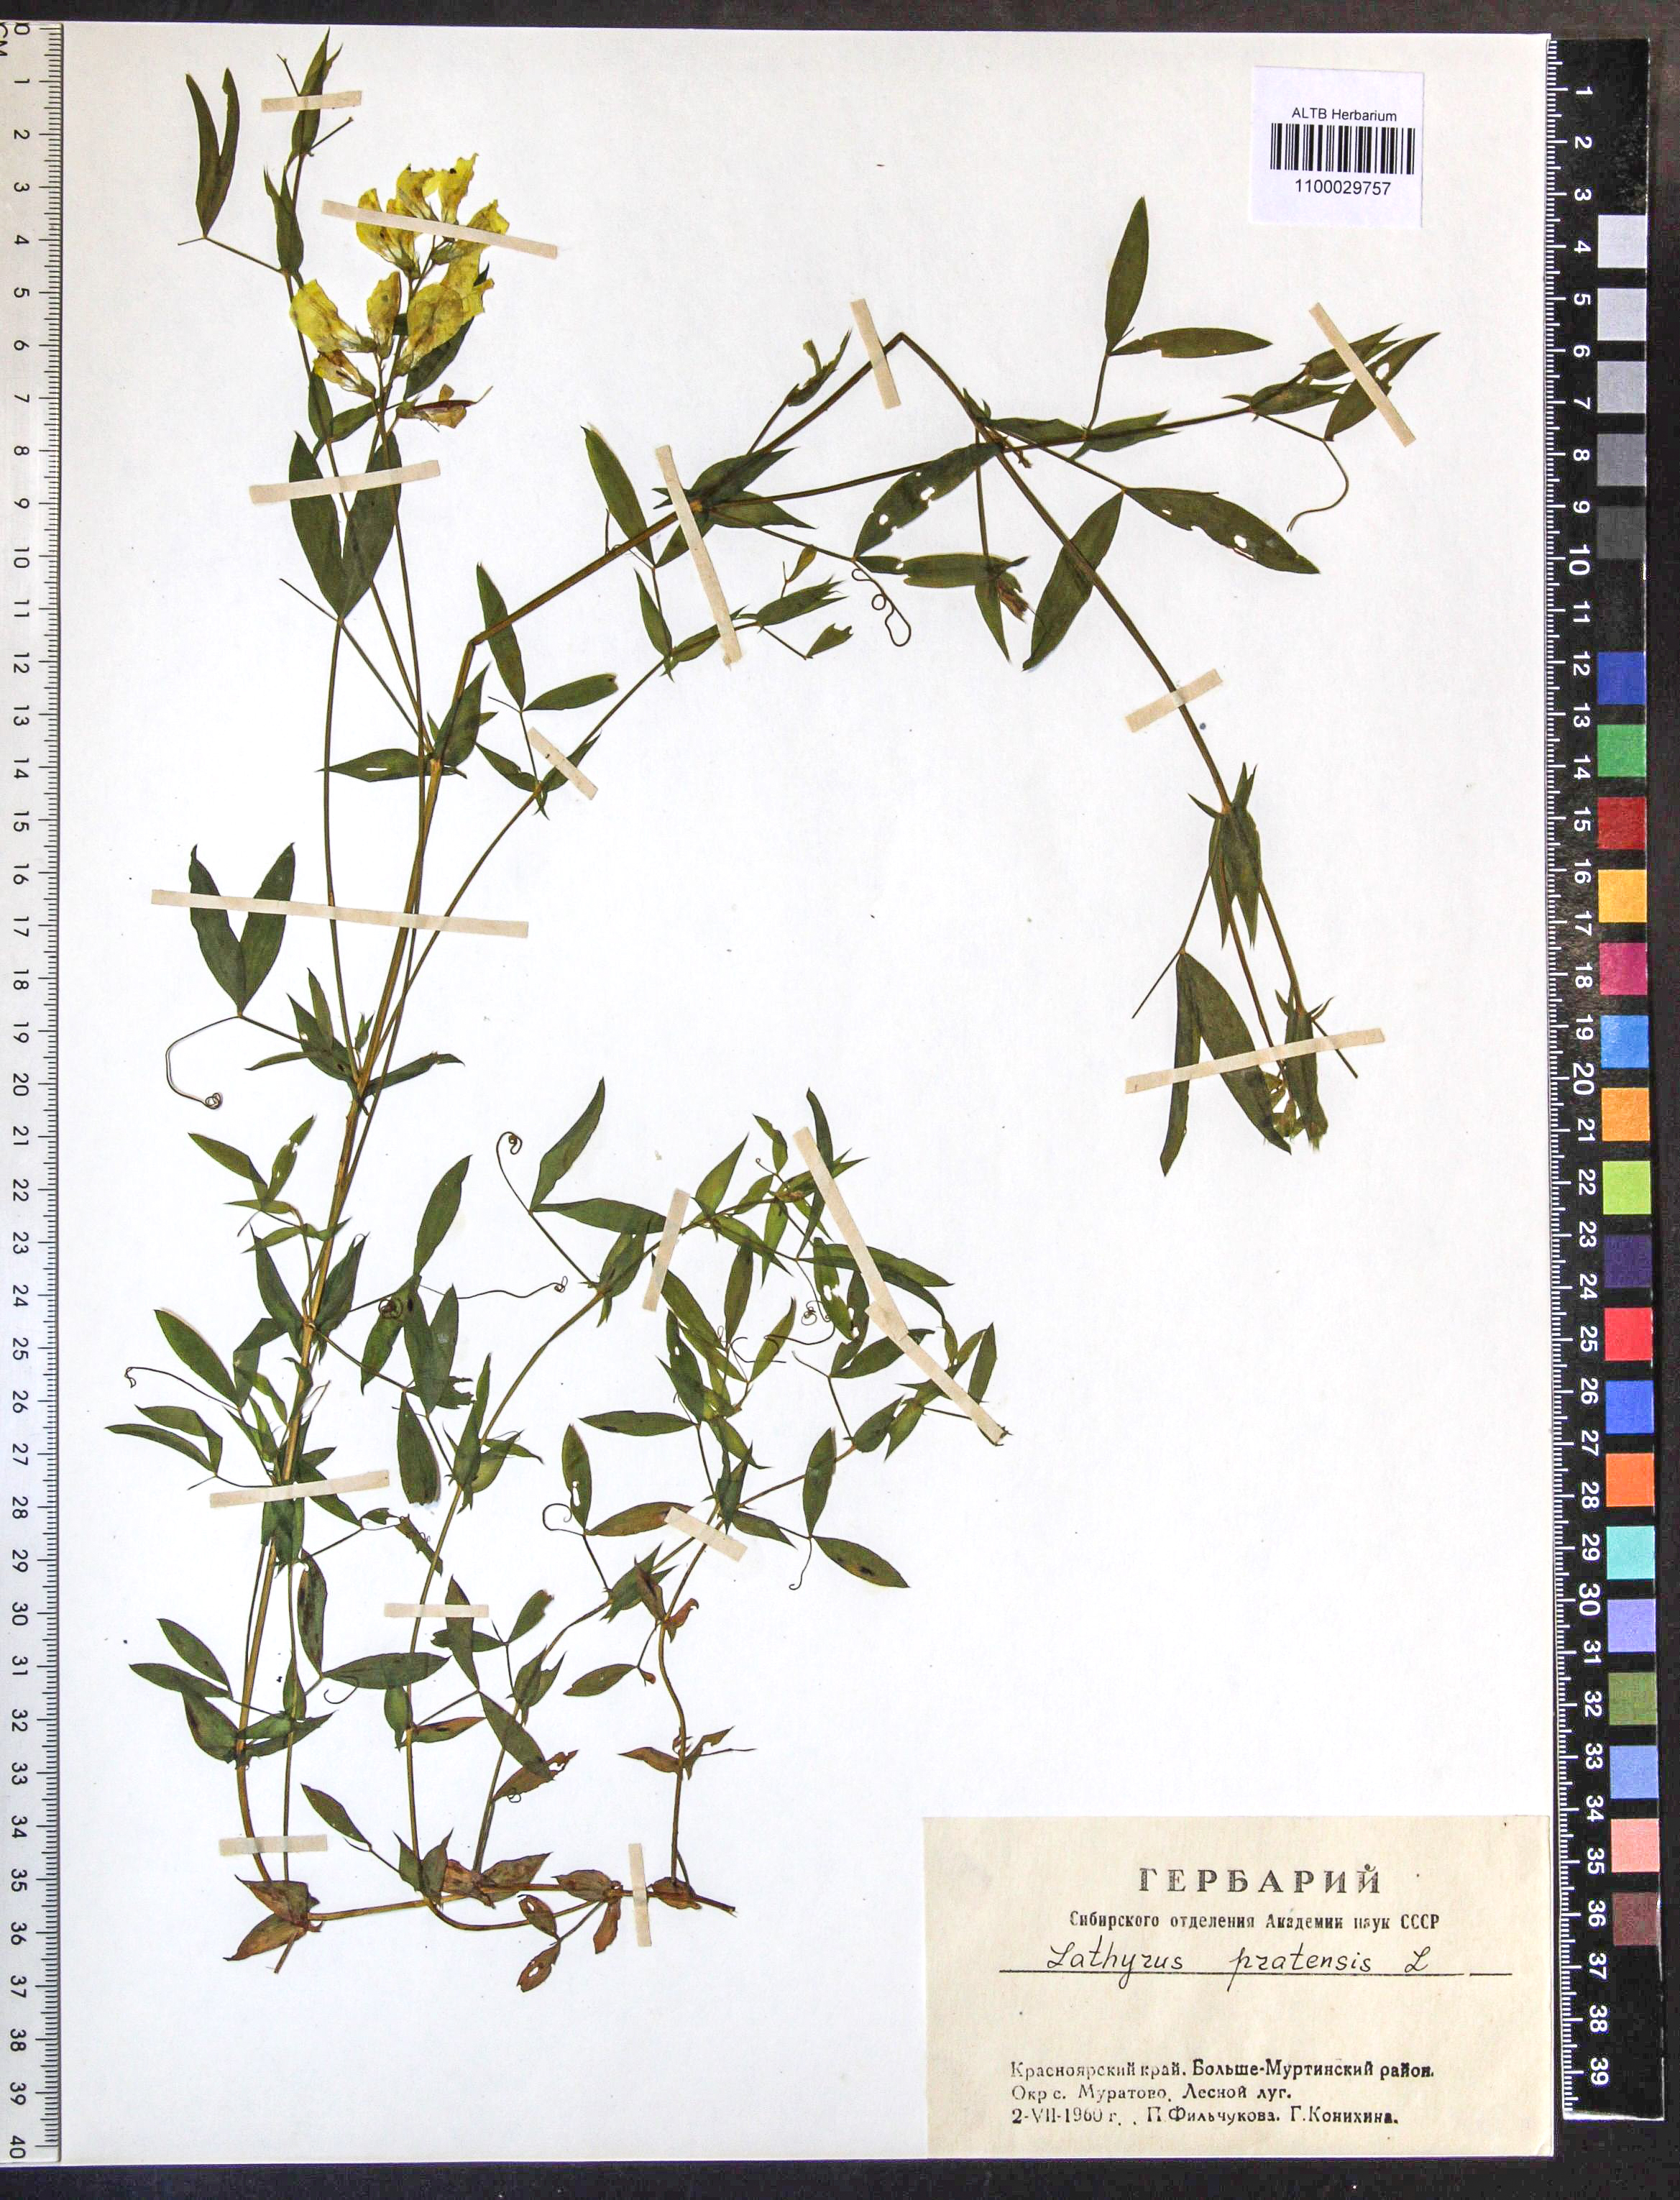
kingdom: Plantae
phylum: Tracheophyta
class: Magnoliopsida
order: Fabales
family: Fabaceae
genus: Lathyrus
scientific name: Lathyrus pratensis
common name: Meadow vetchling
